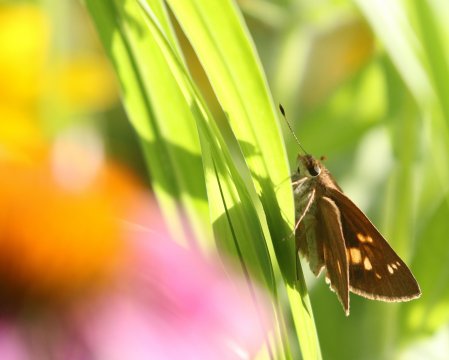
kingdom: Animalia
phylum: Arthropoda
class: Insecta
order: Lepidoptera
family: Hesperiidae
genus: Poanes
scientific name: Poanes viator
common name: Broad-winged Skipper
